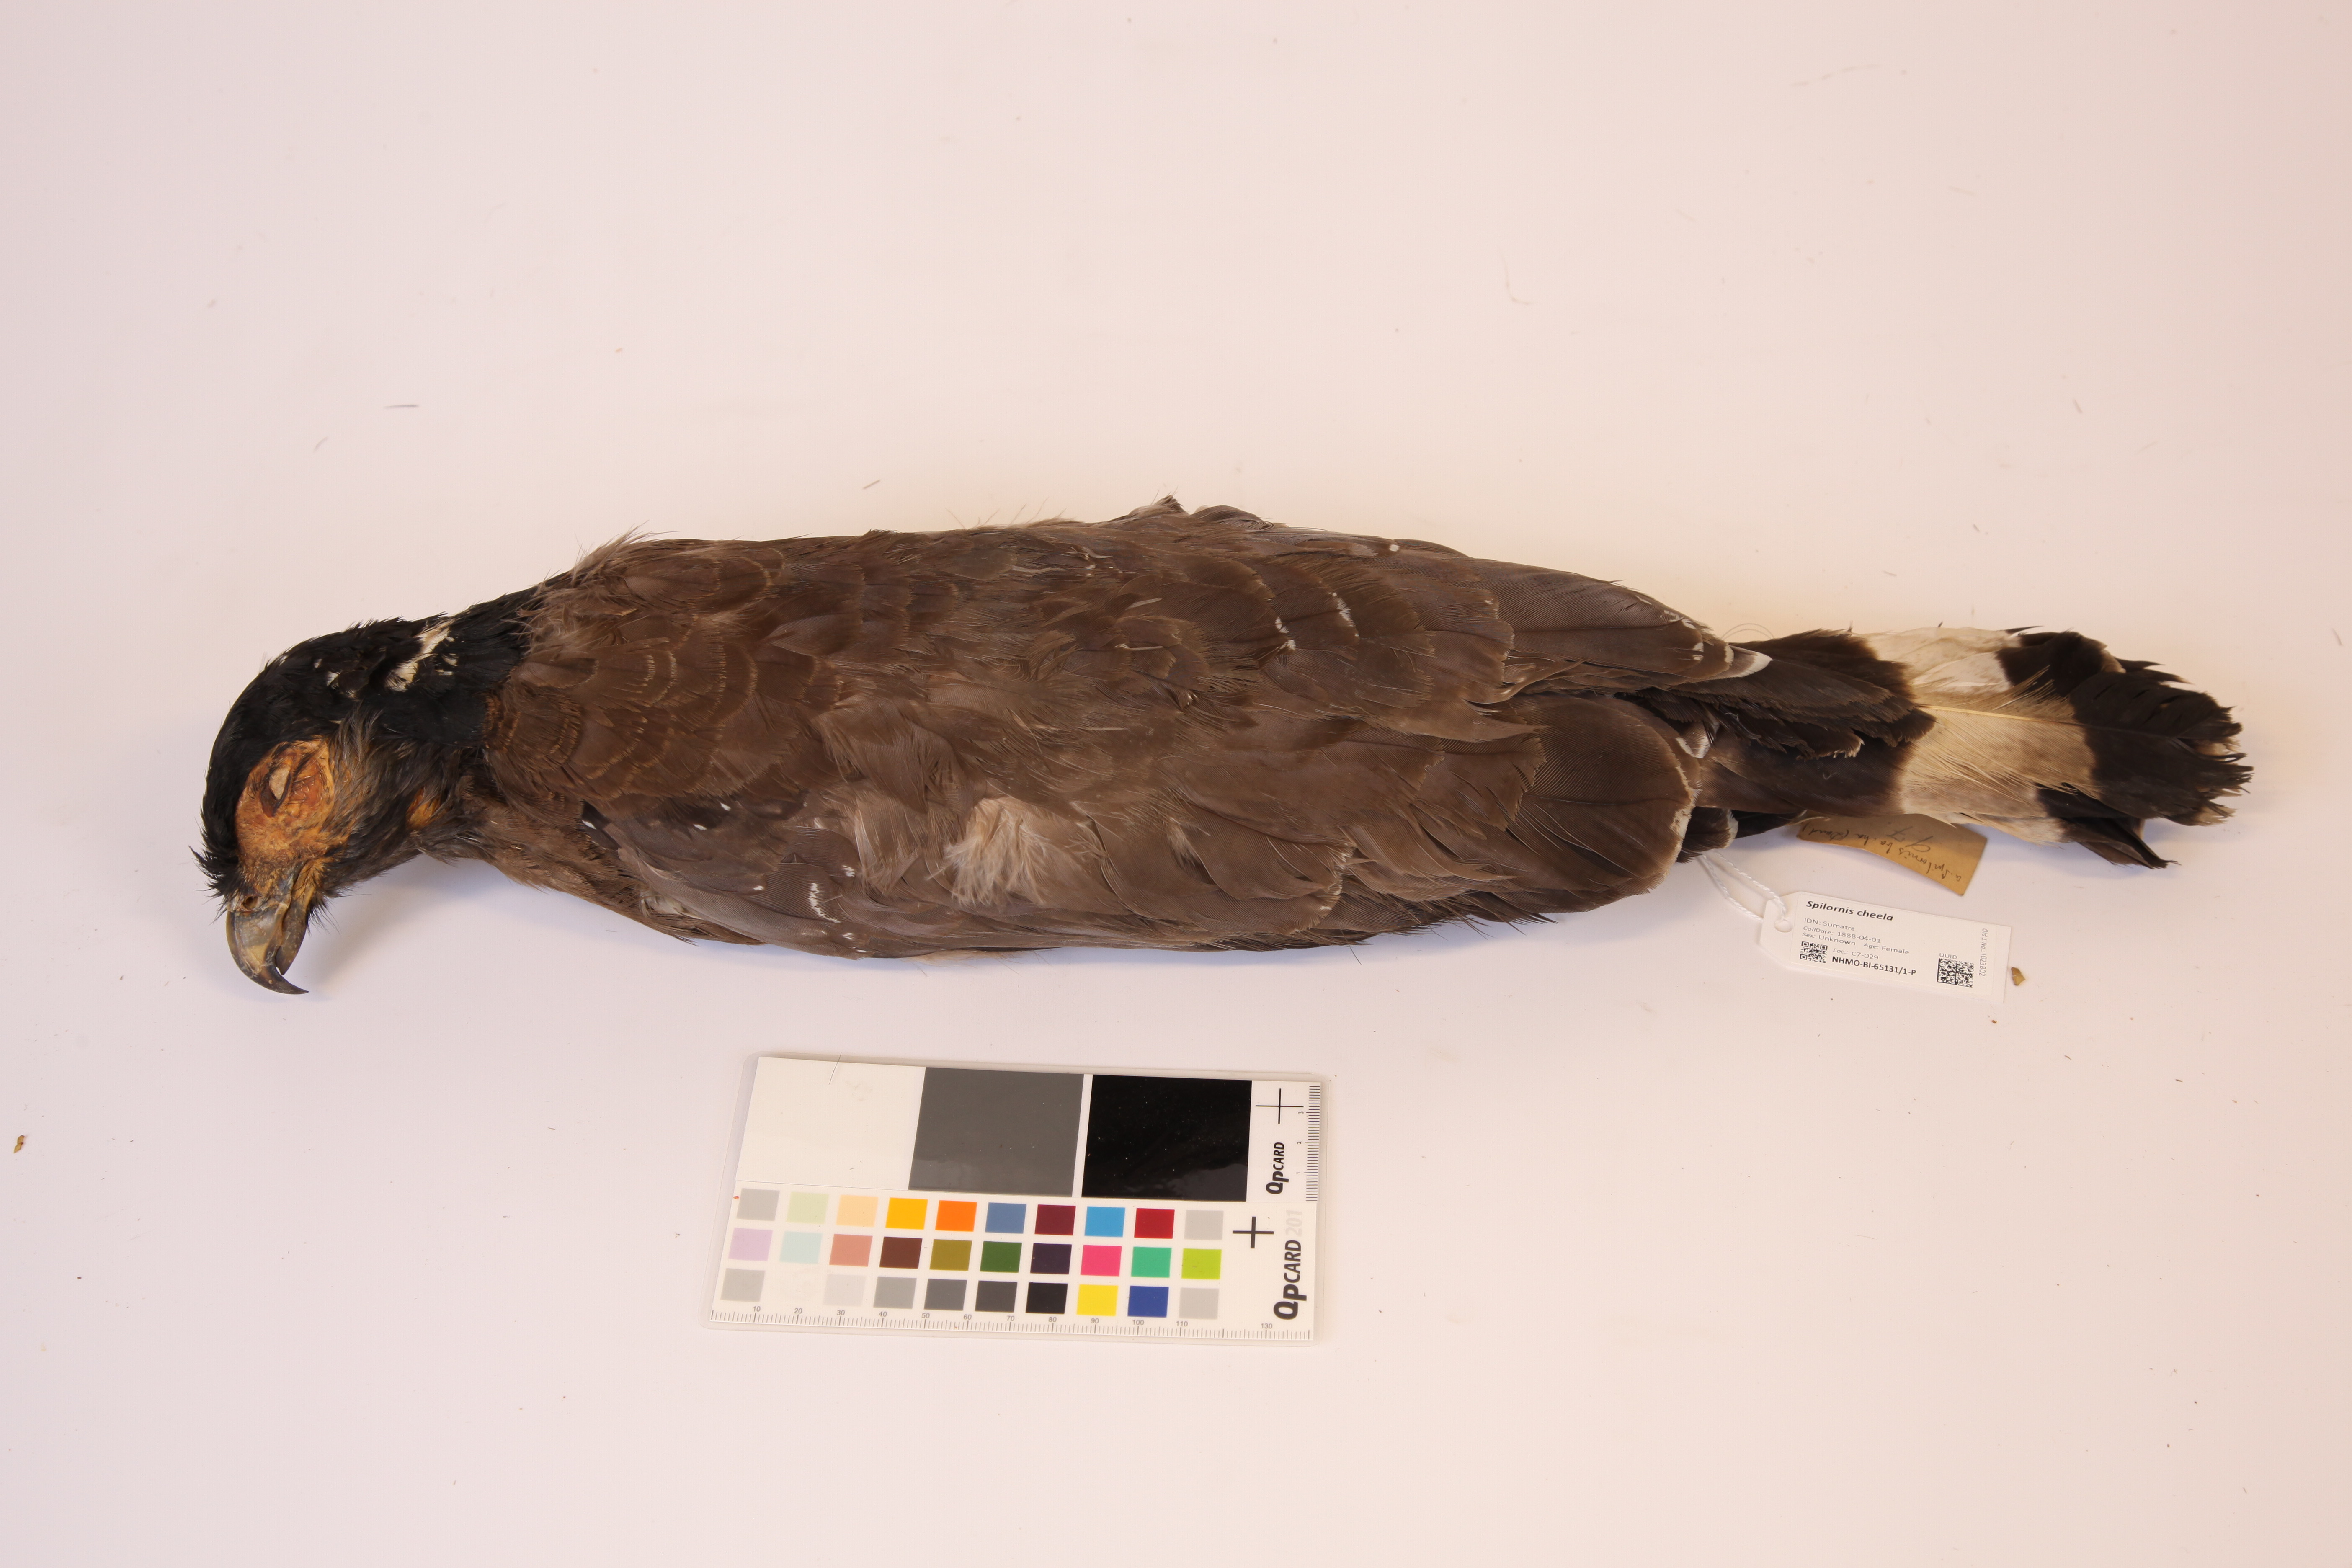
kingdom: Animalia
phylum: Chordata
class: Aves
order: Accipitriformes
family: Accipitridae
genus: Spilornis
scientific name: Spilornis cheela
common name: Crested serpent eagle
